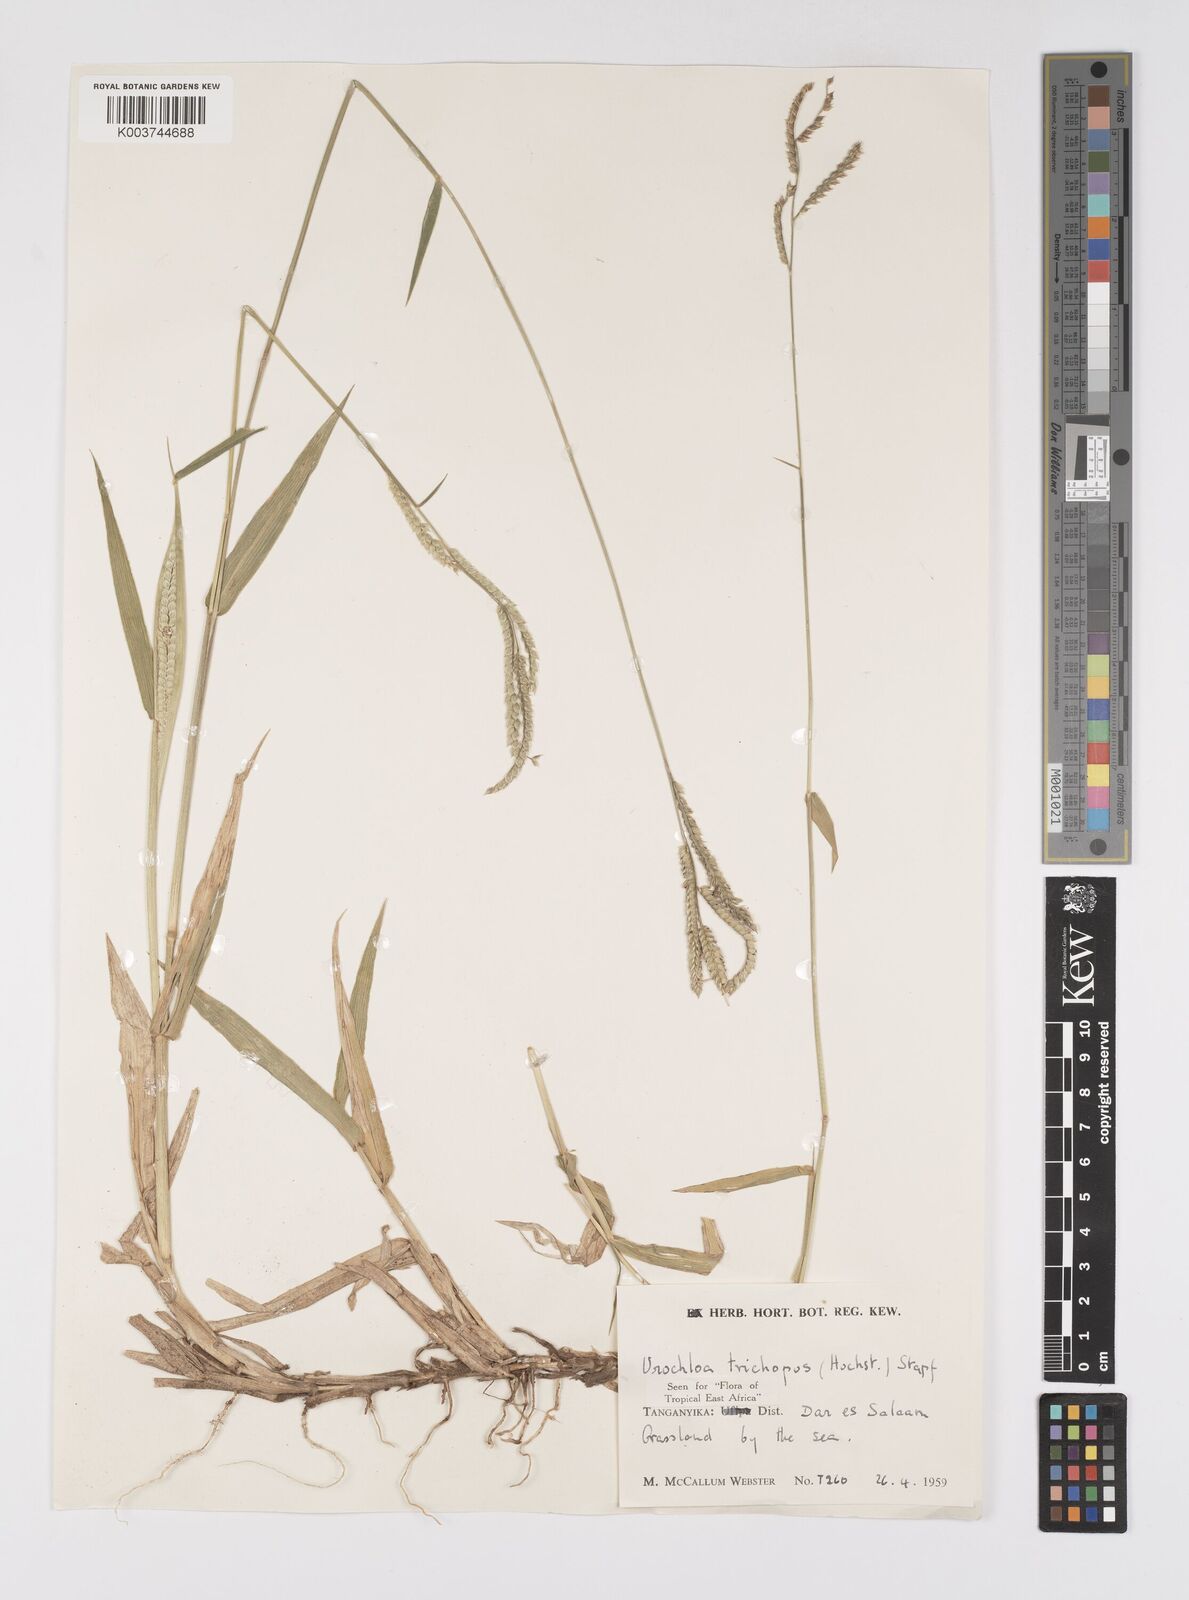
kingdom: Plantae
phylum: Tracheophyta
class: Liliopsida
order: Poales
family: Poaceae
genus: Urochloa
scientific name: Urochloa trichopus
